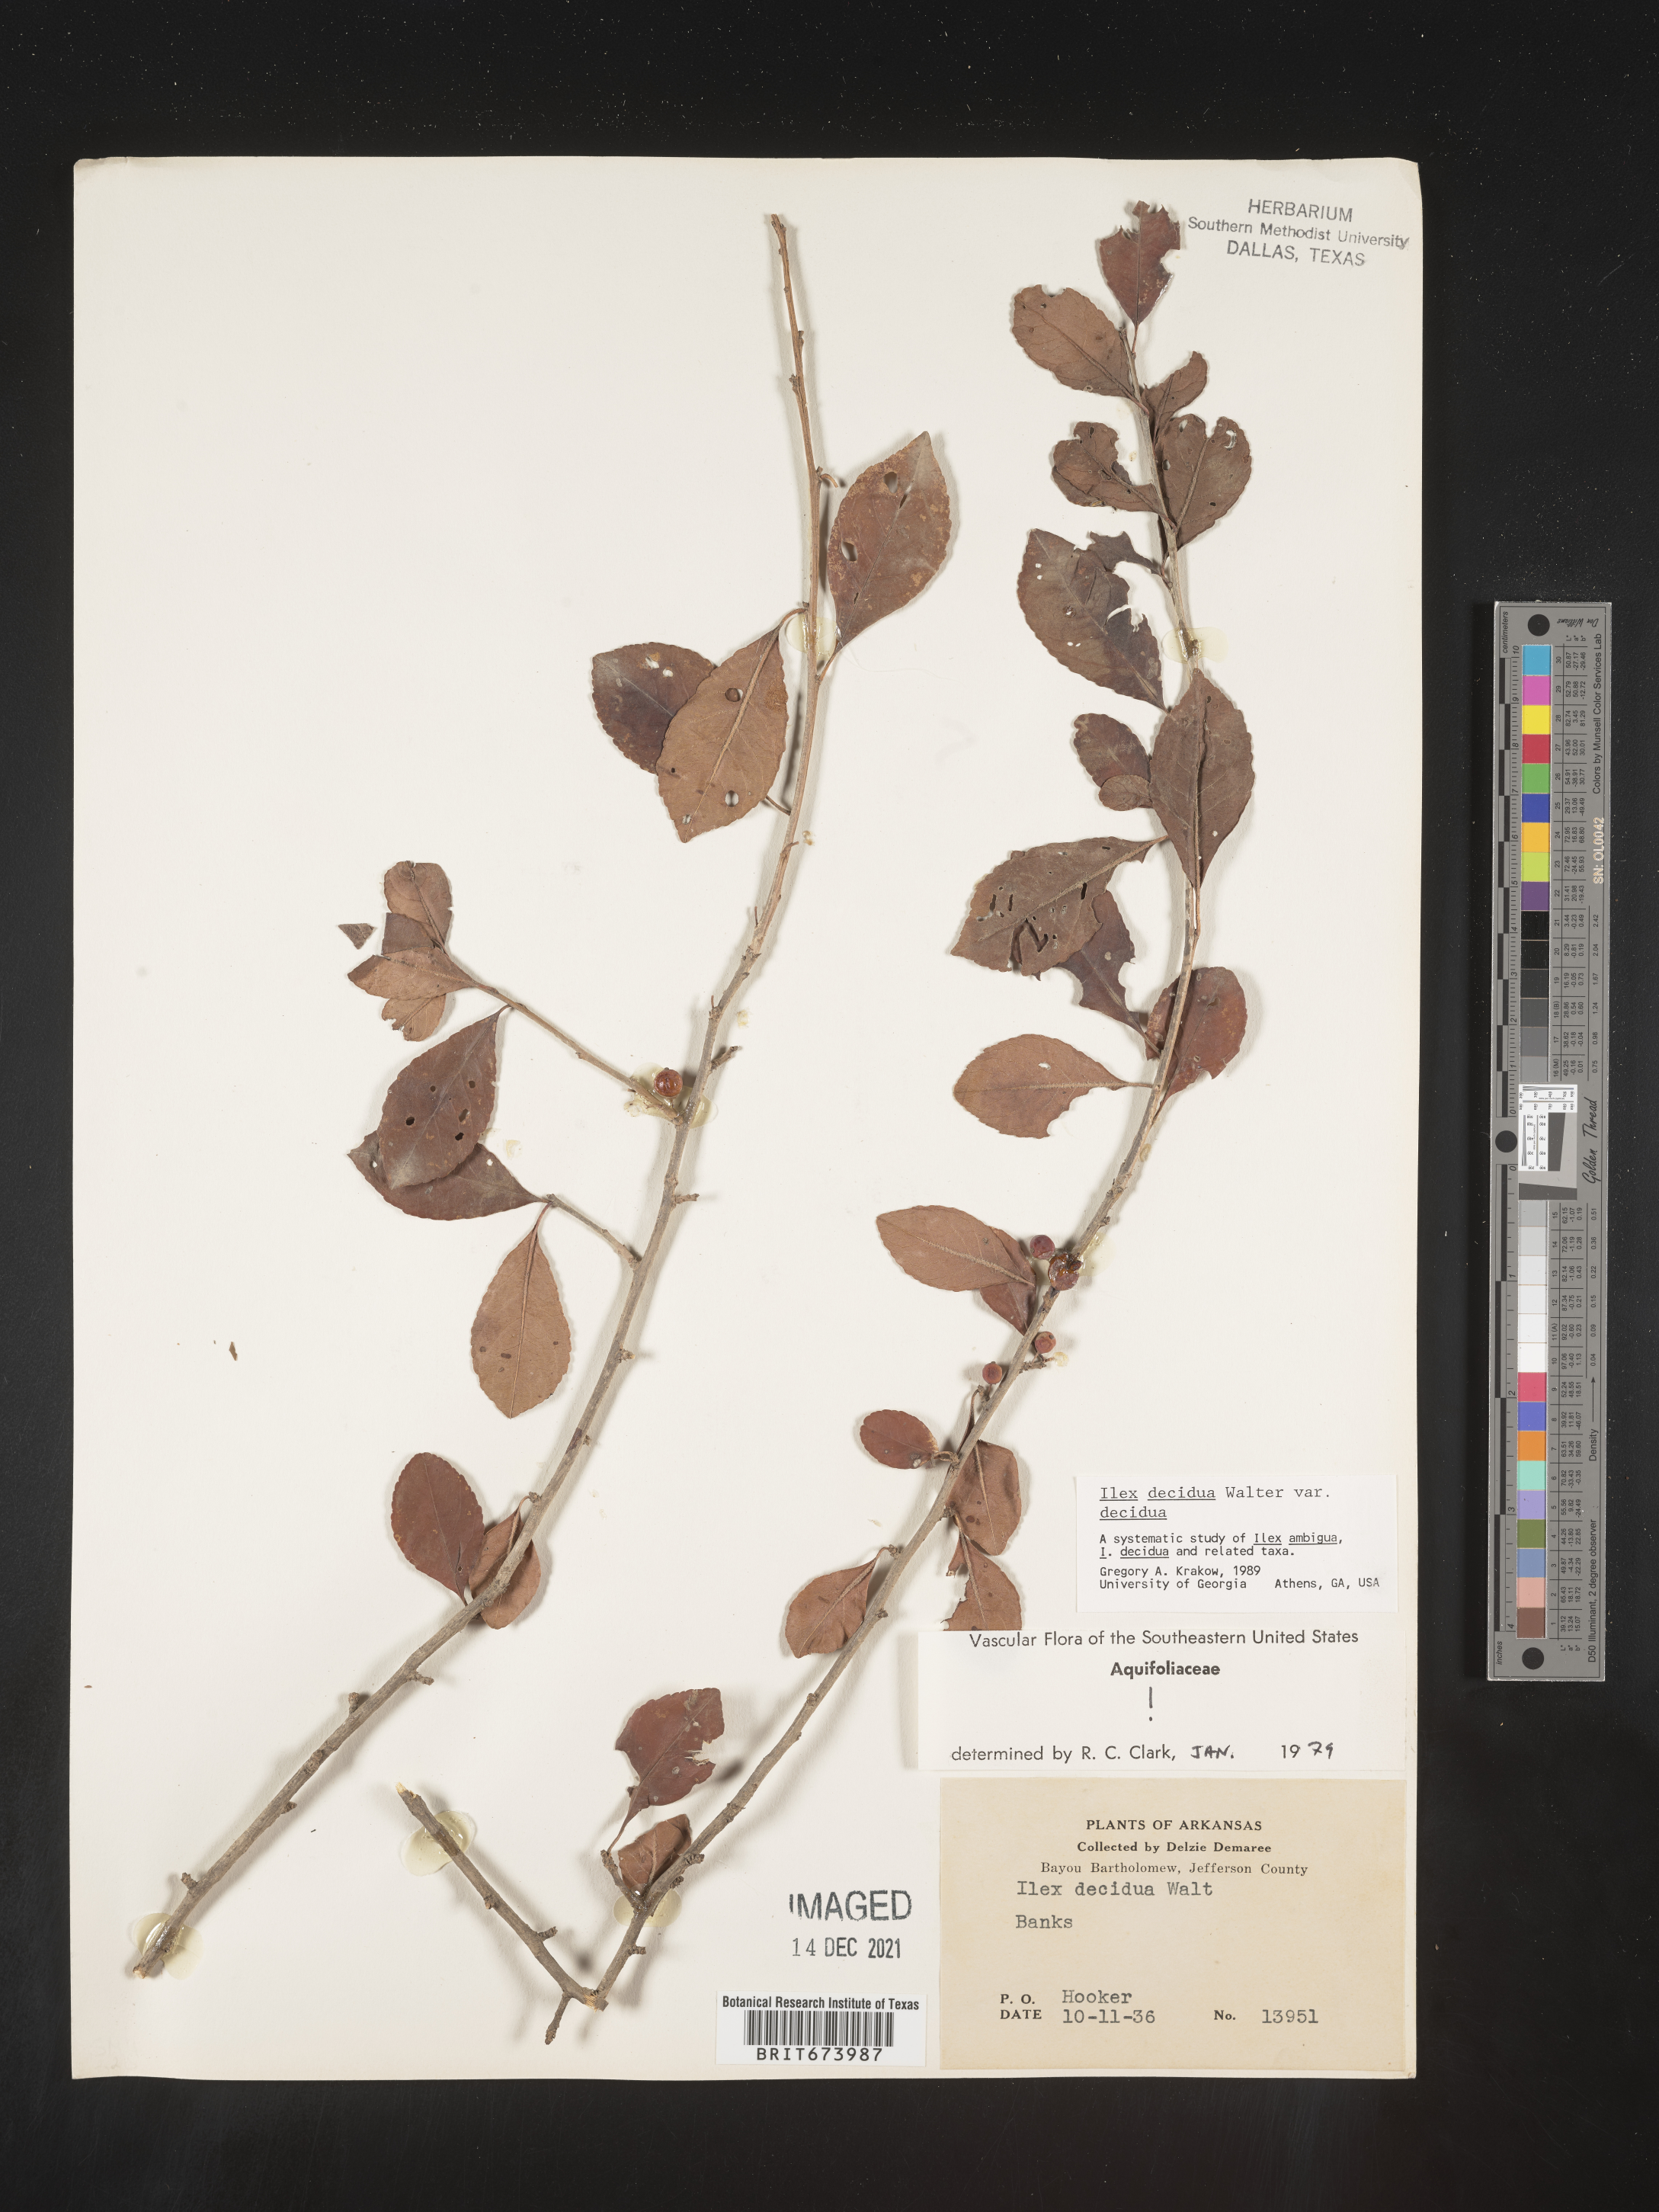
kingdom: Plantae
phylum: Tracheophyta
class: Magnoliopsida
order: Aquifoliales
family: Aquifoliaceae
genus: Ilex
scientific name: Ilex decidua
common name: Possum-haw
